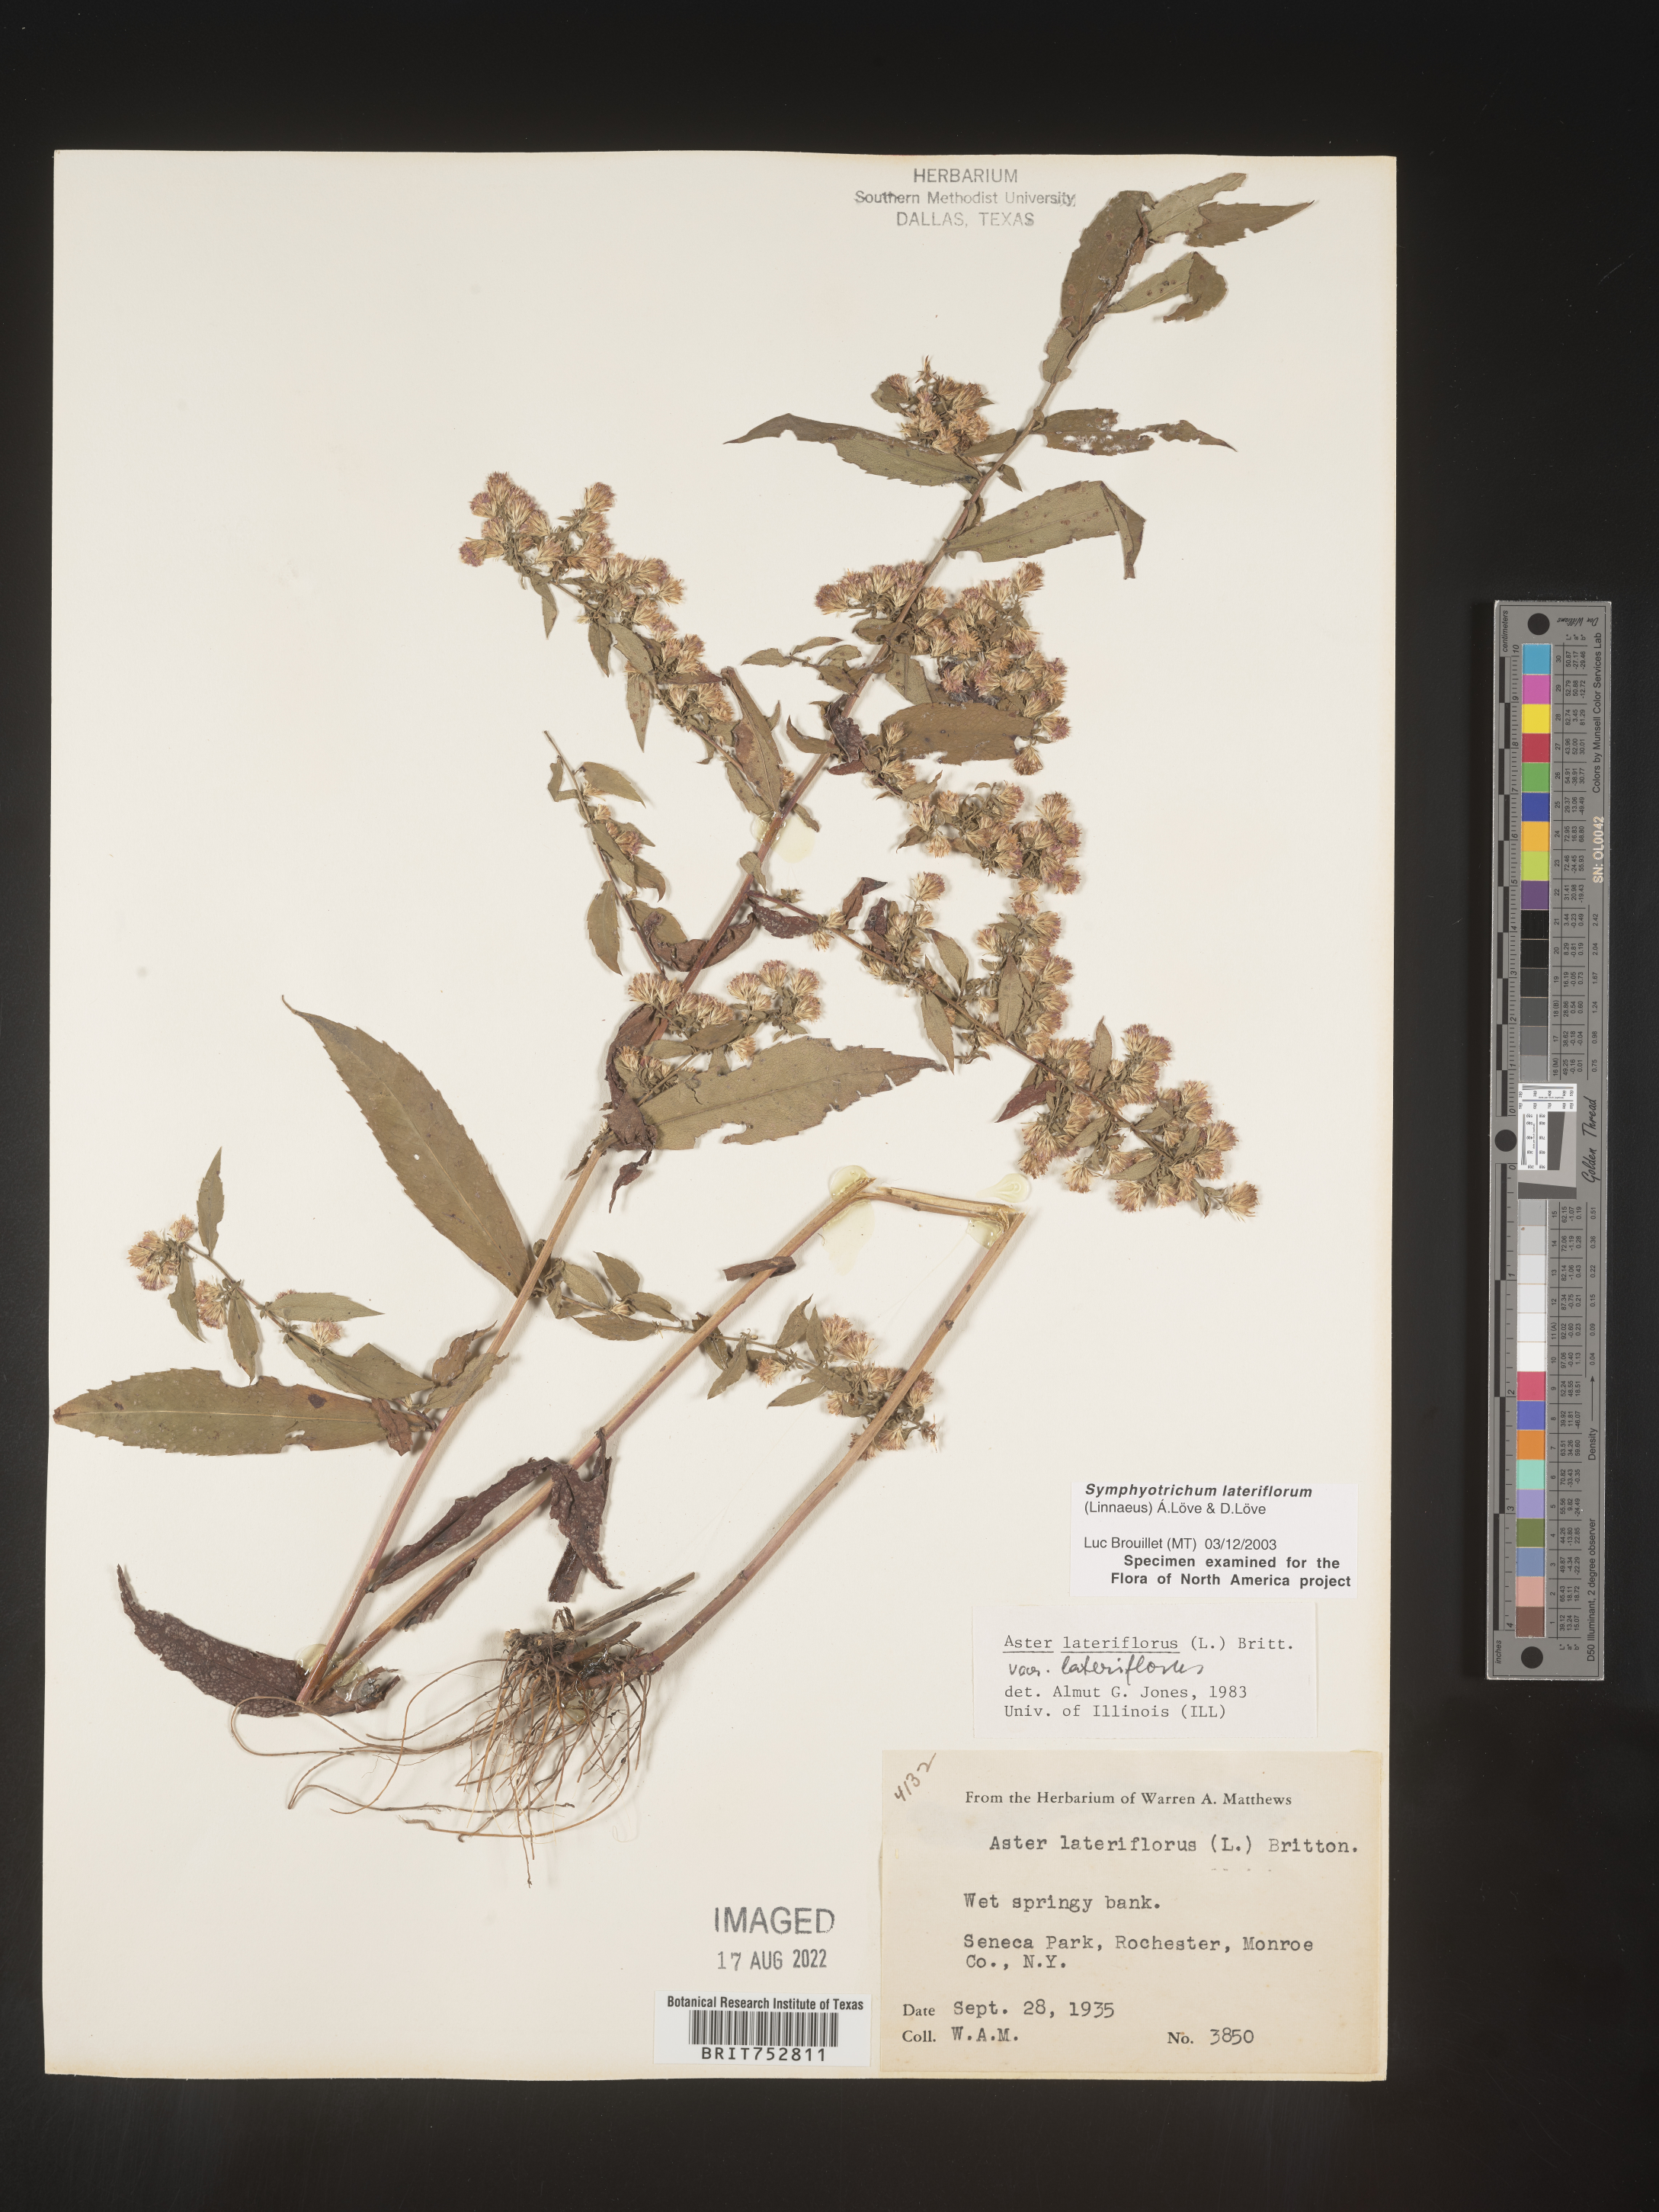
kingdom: Plantae
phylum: Tracheophyta
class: Magnoliopsida
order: Asterales
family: Asteraceae
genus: Symphyotrichum
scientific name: Symphyotrichum lateriflorum
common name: Calico aster
